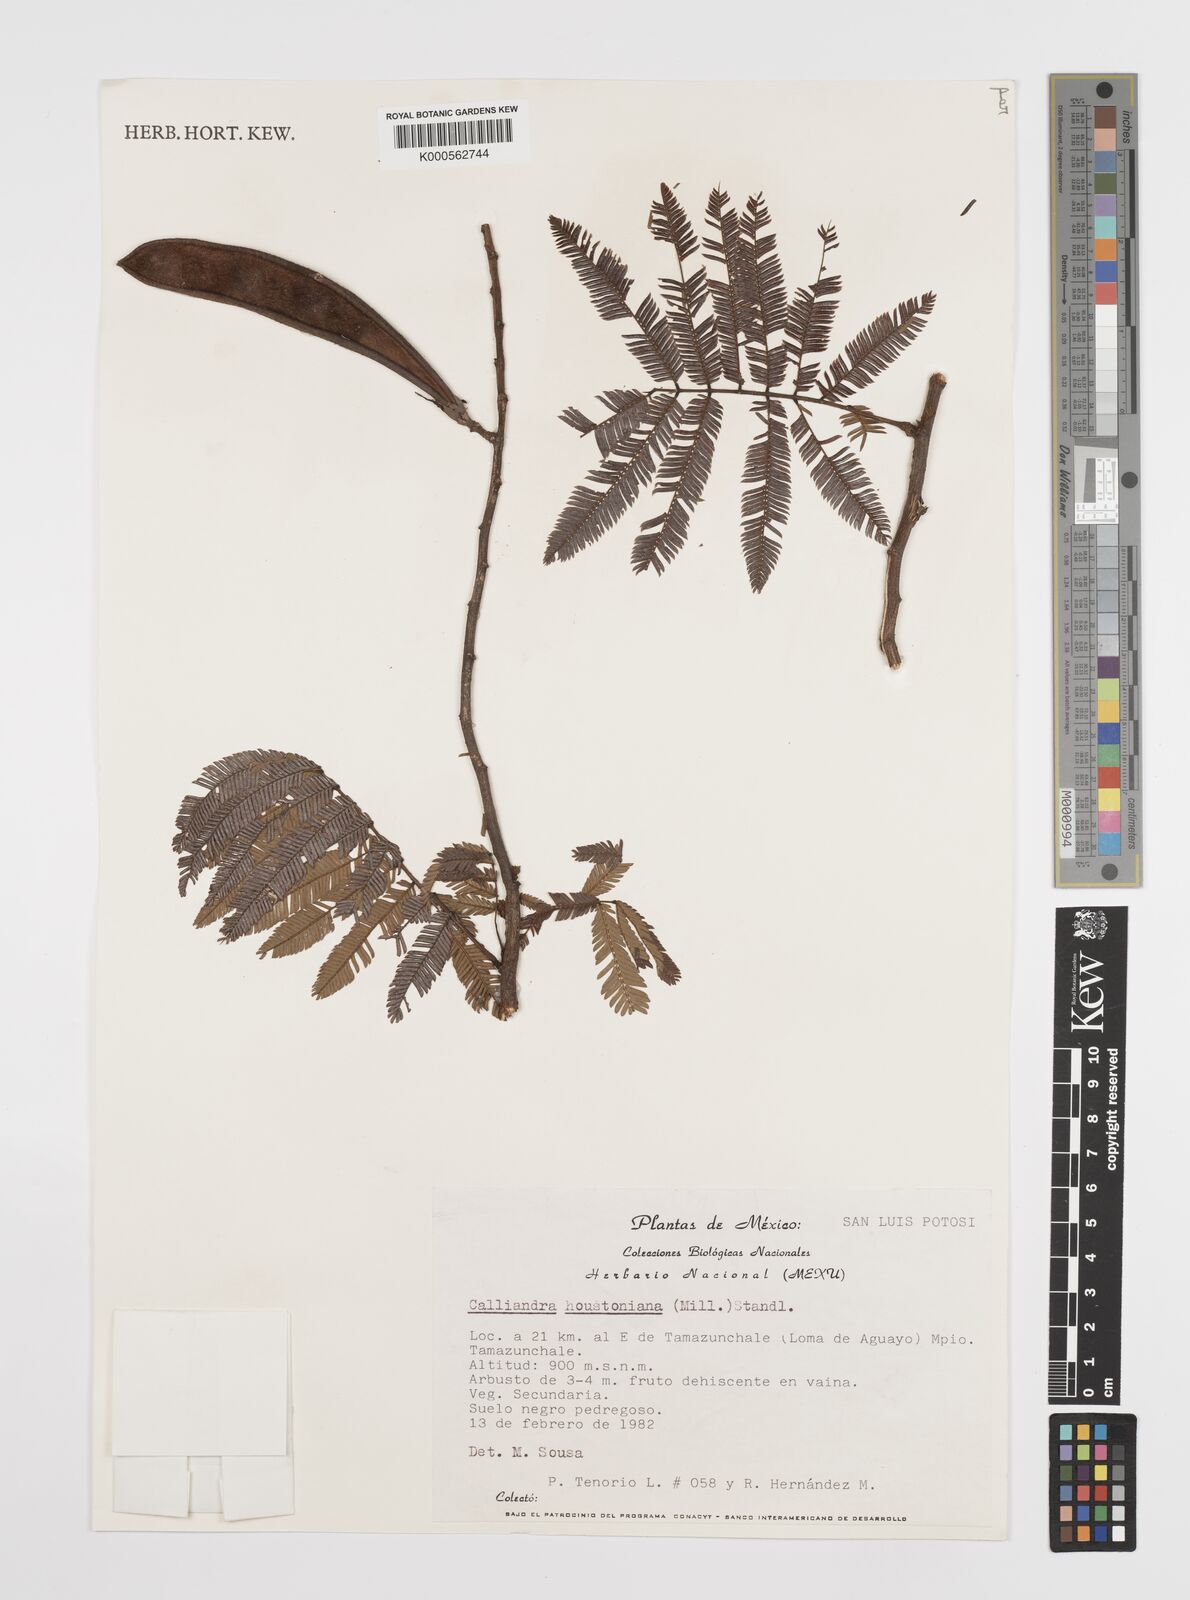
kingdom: Plantae
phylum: Tracheophyta
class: Magnoliopsida
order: Fabales
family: Fabaceae
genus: Calliandra
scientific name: Calliandra houstoniana
